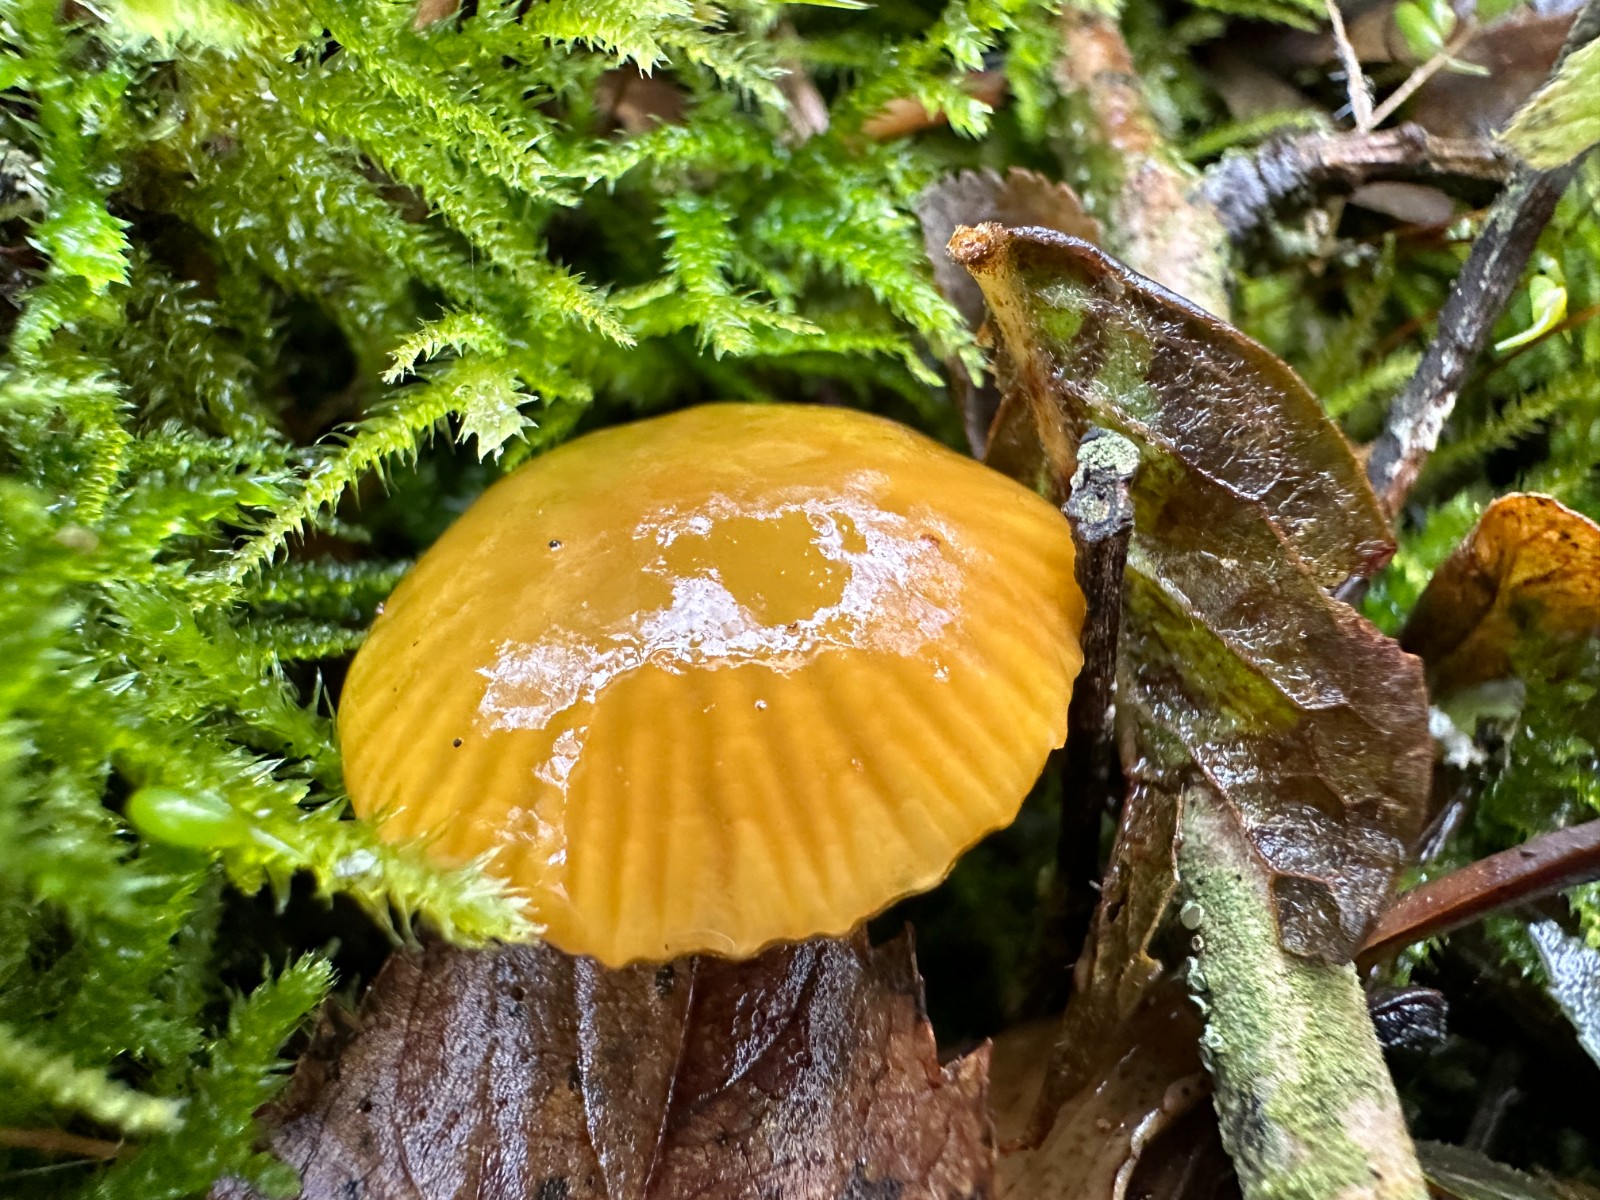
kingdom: Fungi
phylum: Basidiomycota
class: Agaricomycetes
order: Agaricales
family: Hygrophoraceae
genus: Gliophorus
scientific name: Gliophorus psittacinus
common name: papegøje-vokshat
